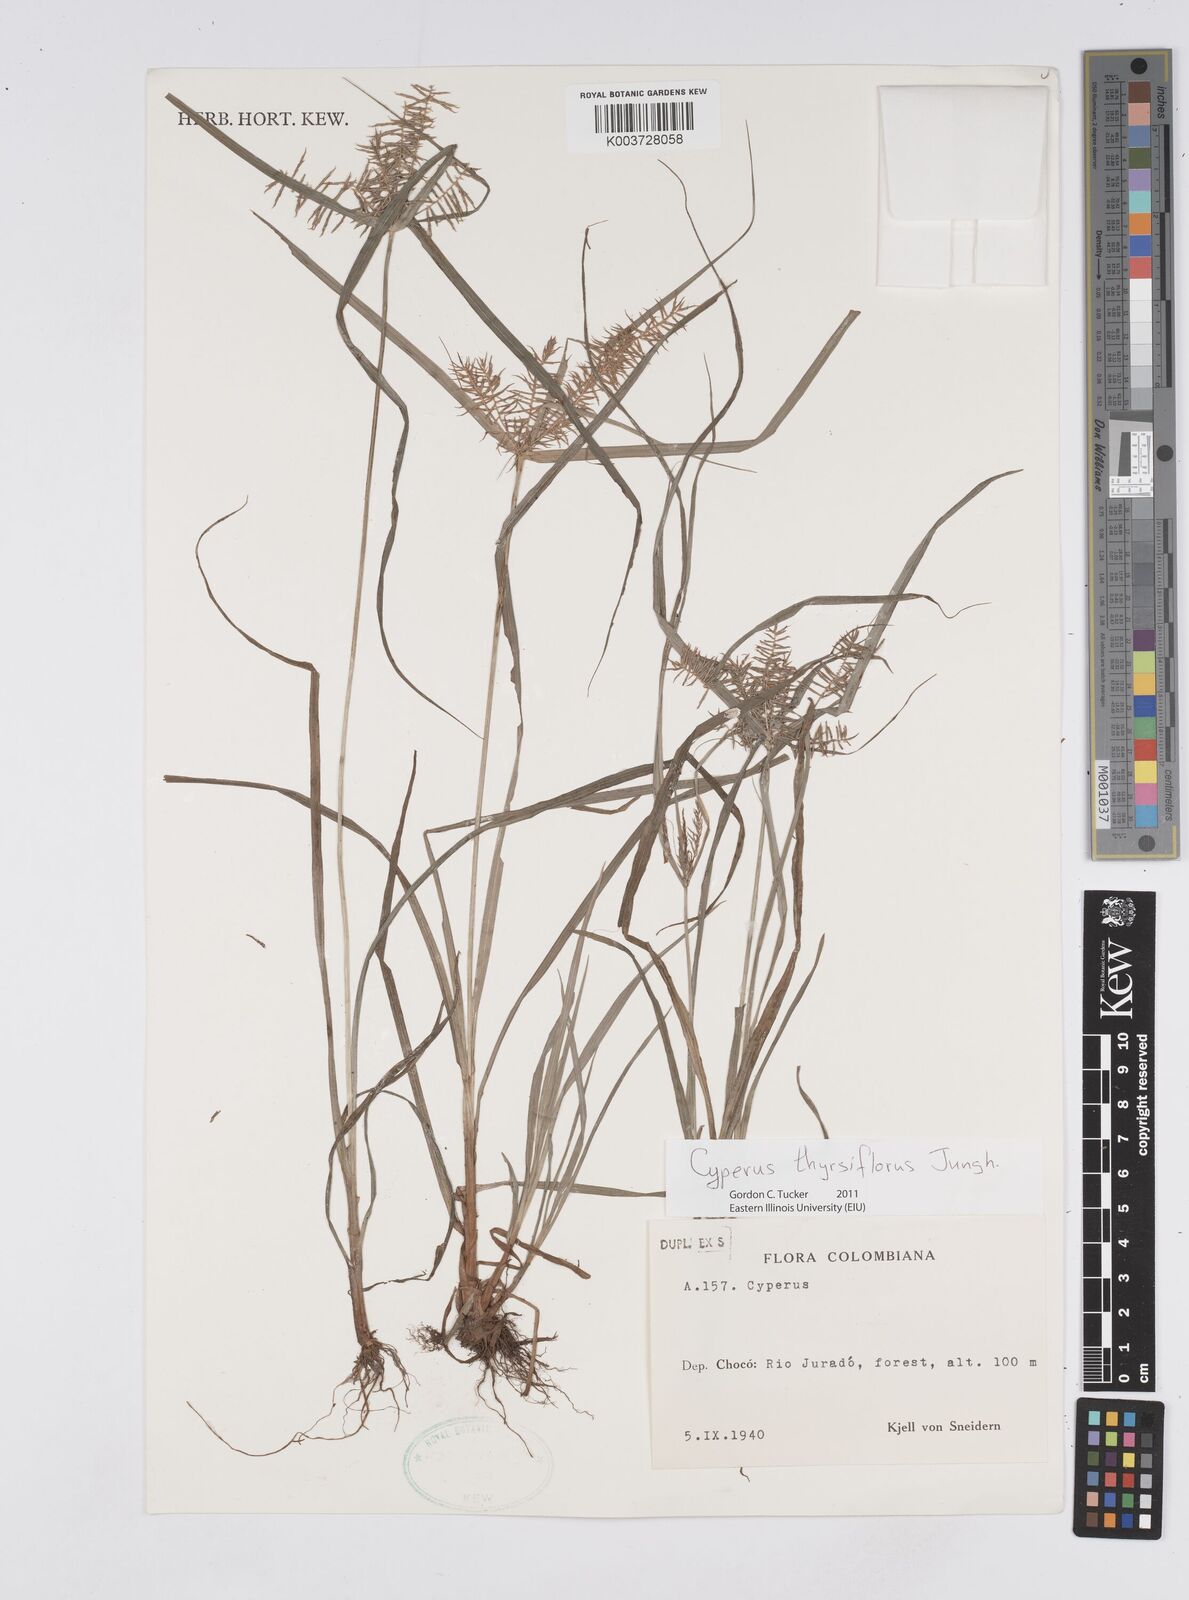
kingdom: Plantae
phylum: Tracheophyta
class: Liliopsida
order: Poales
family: Cyperaceae
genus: Cyperus
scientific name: Cyperus thyrsiflorus
